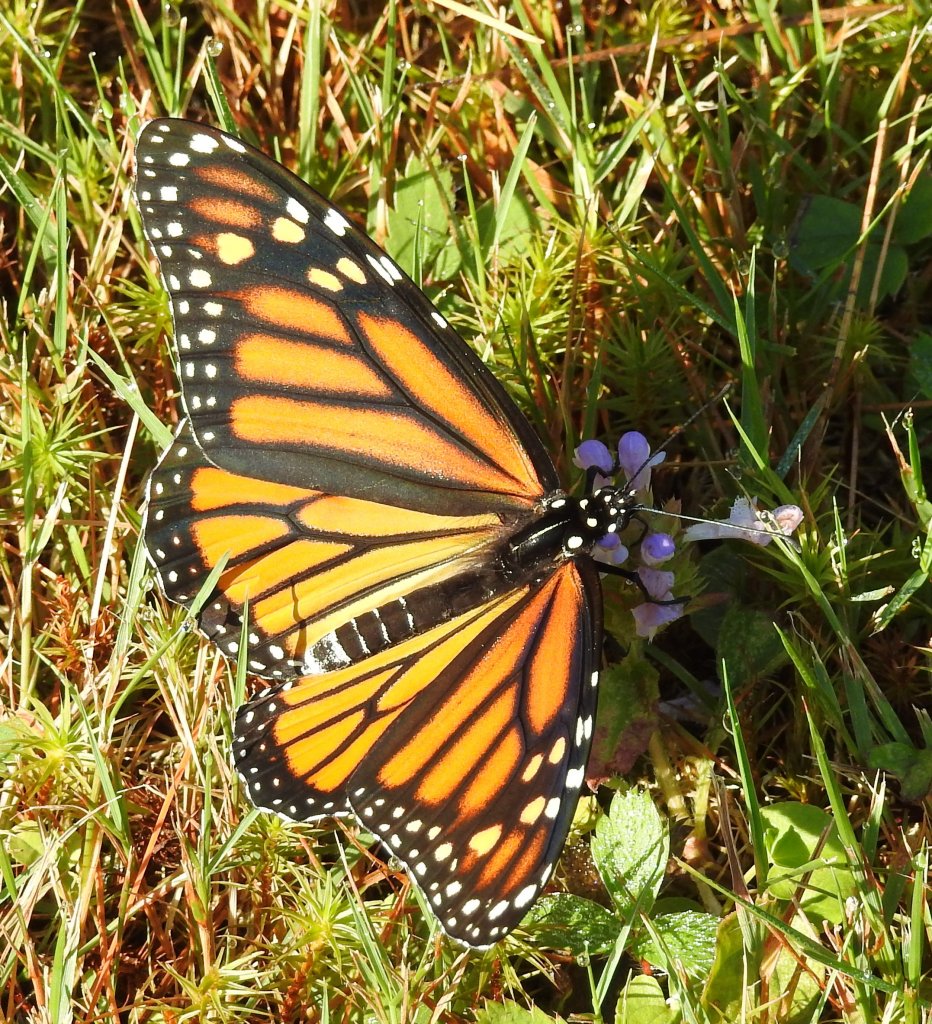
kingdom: Animalia
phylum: Arthropoda
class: Insecta
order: Lepidoptera
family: Nymphalidae
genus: Danaus
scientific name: Danaus plexippus
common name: Monarch
